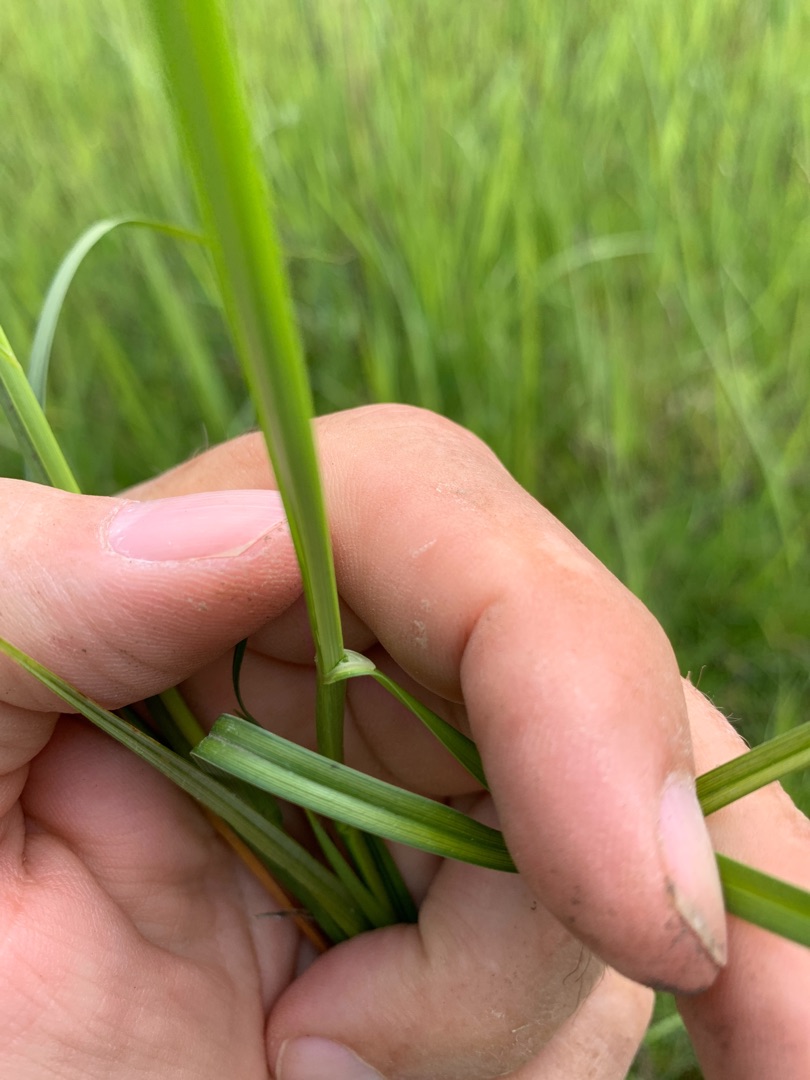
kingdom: Plantae
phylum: Tracheophyta
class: Liliopsida
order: Poales
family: Cyperaceae
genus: Carex
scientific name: Carex disticha
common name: Toradet star
